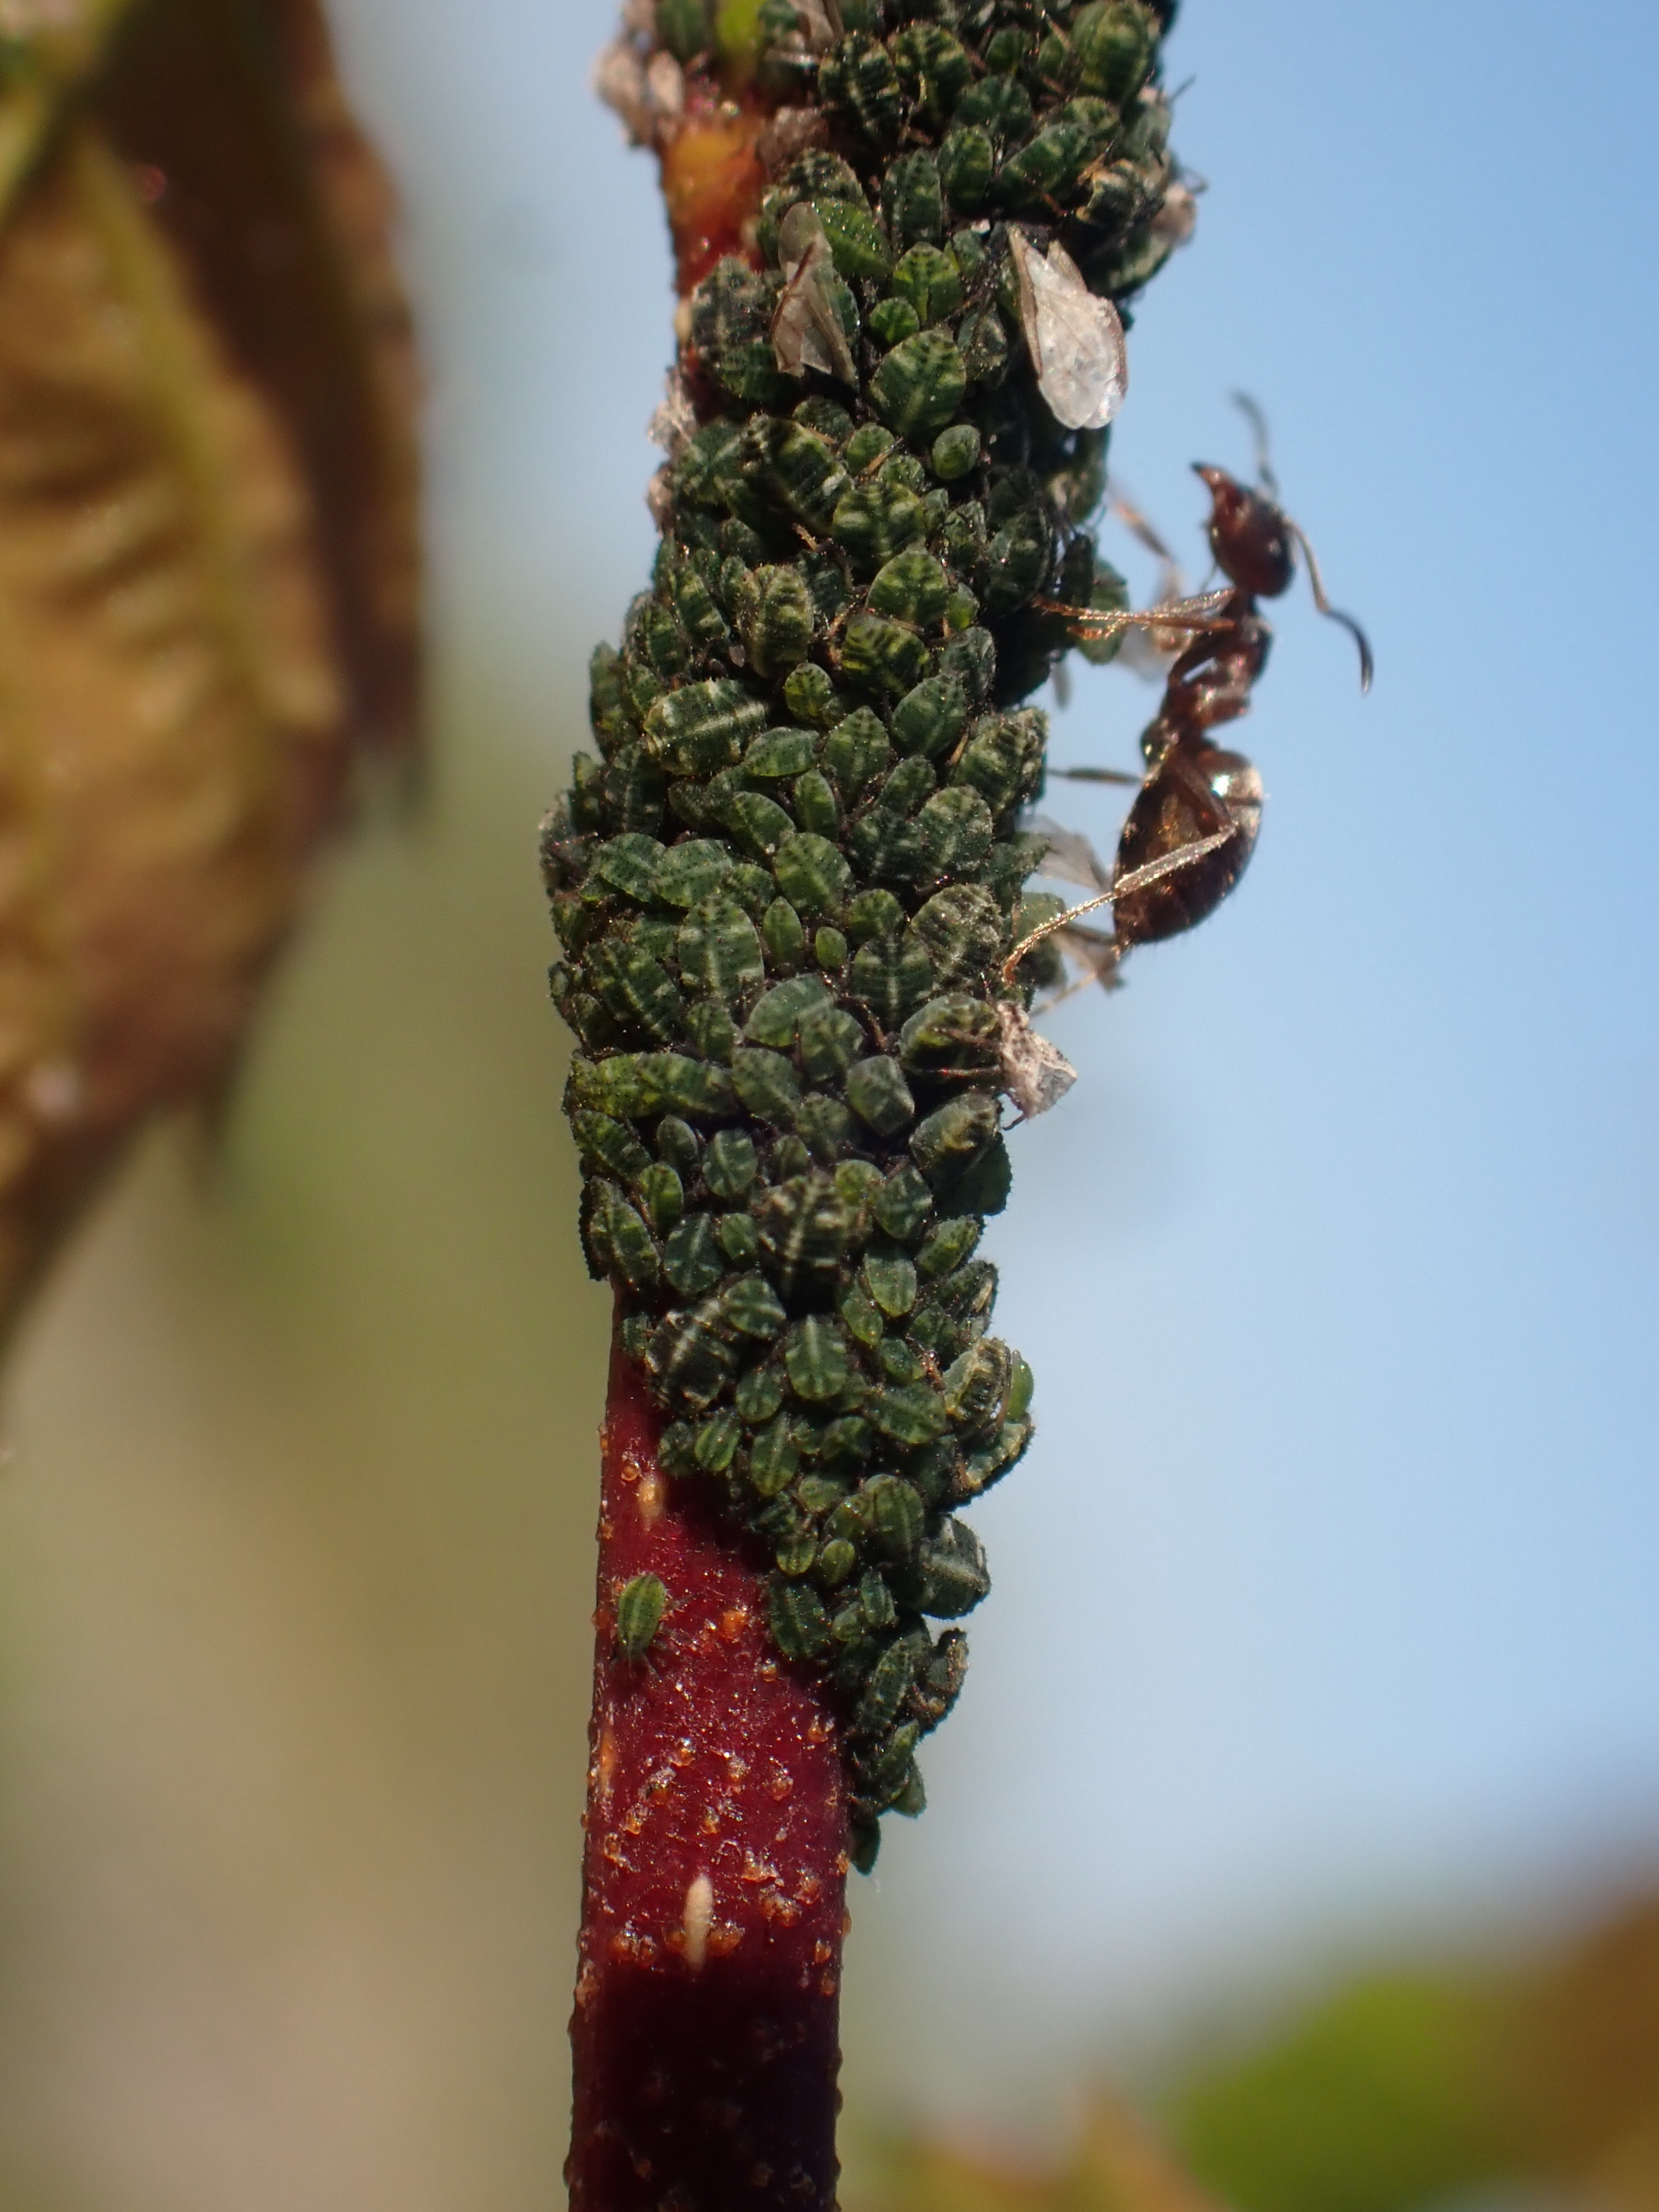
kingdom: Animalia
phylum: Arthropoda
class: Insecta
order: Hemiptera
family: Aphididae
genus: Glyphina
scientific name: Glyphina betulae
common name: Birkemaskebladlus
